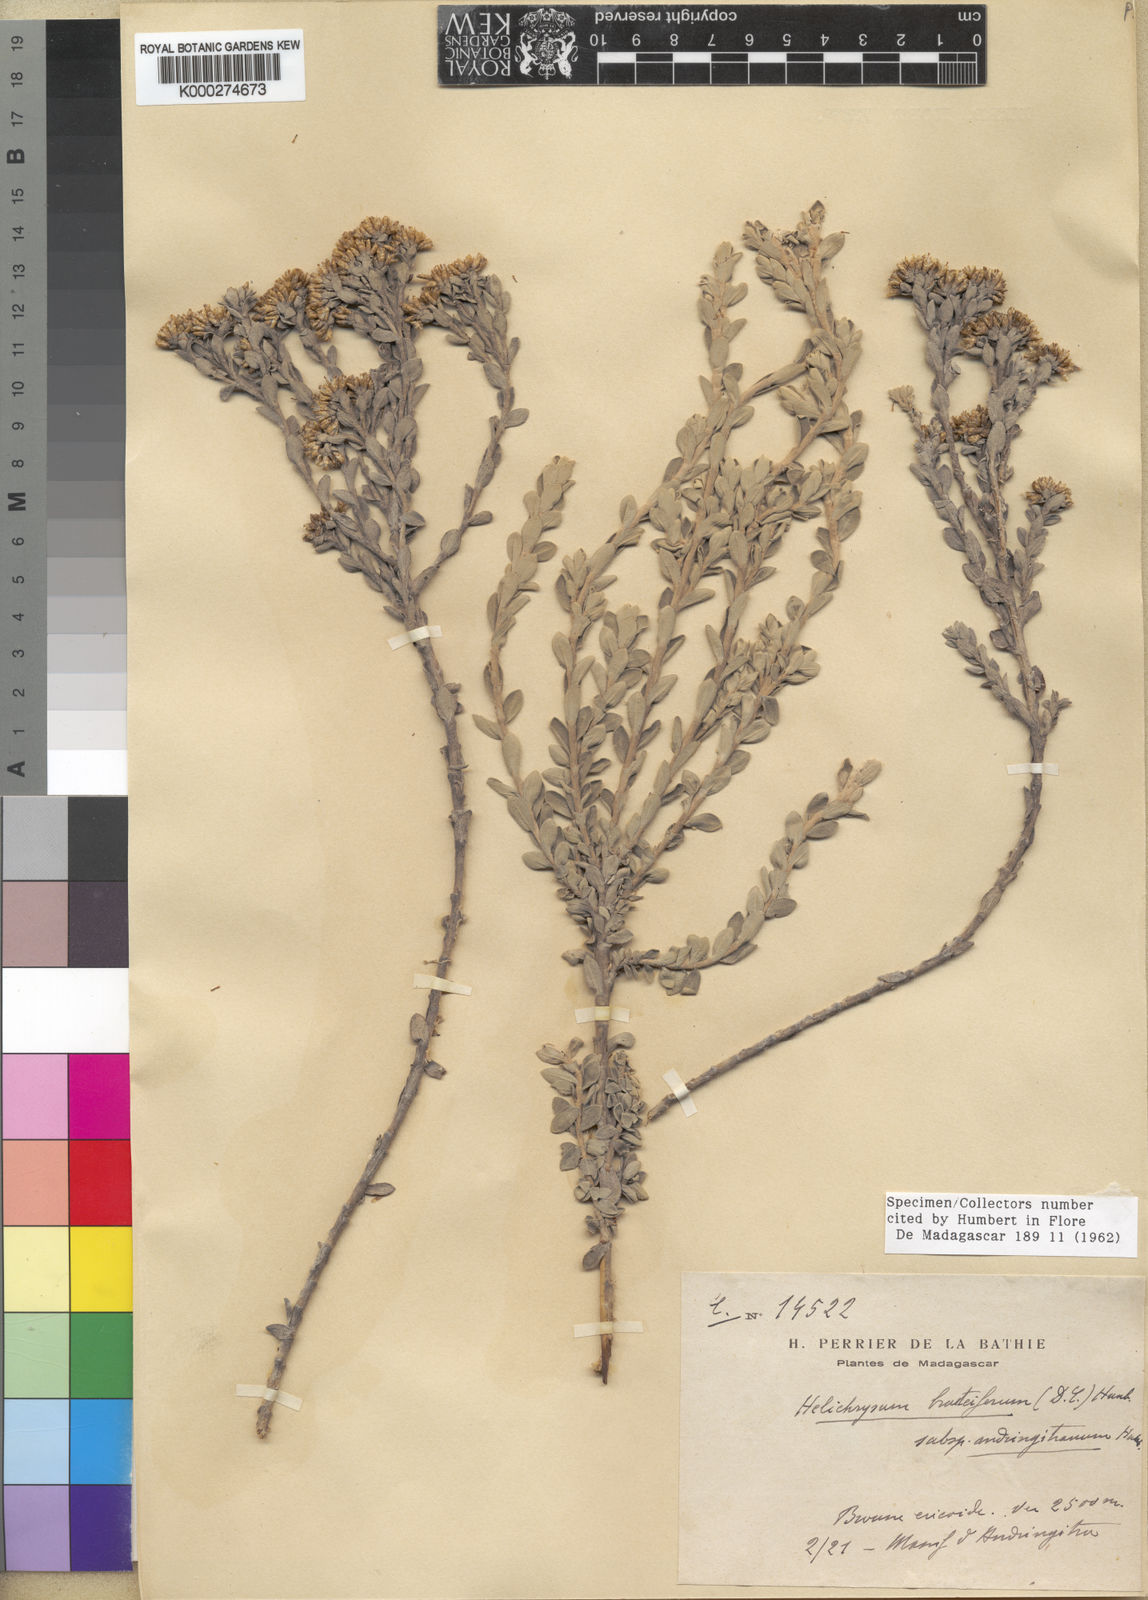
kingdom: Plantae
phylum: Tracheophyta
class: Magnoliopsida
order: Asterales
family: Asteraceae
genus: Helichrysum
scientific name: Helichrysum bracteiferum
